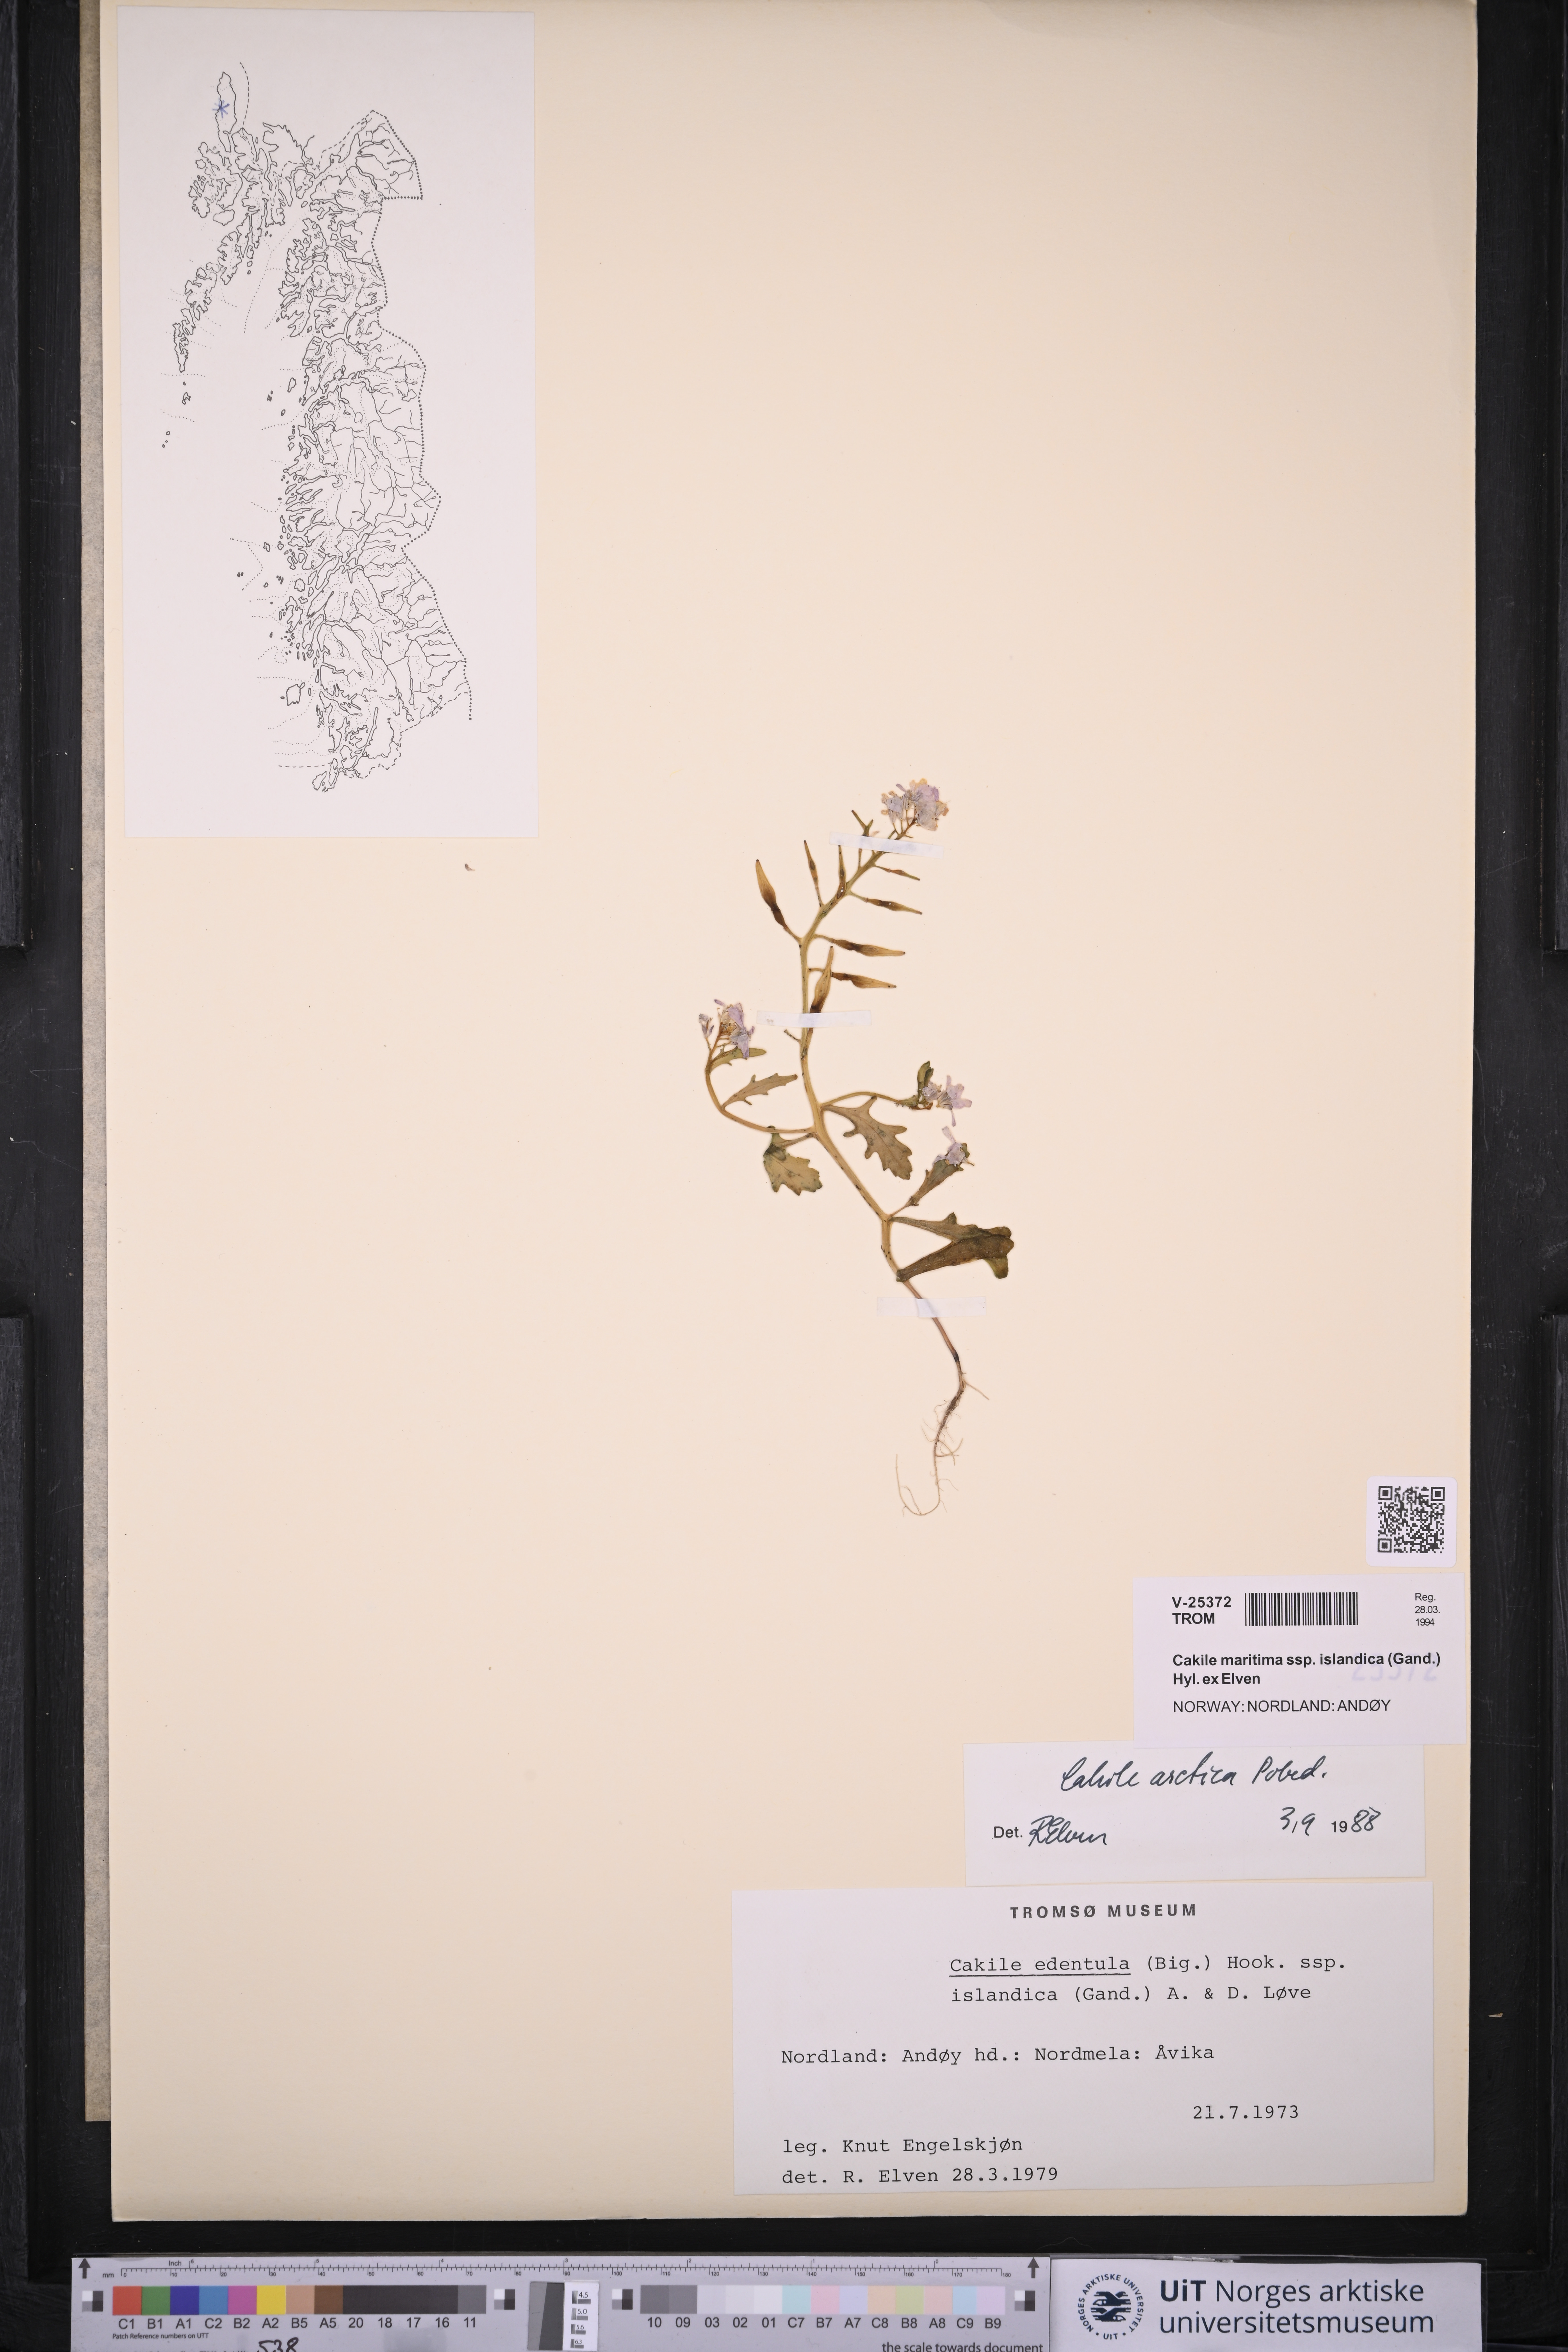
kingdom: Plantae
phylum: Tracheophyta
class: Magnoliopsida
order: Brassicales
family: Brassicaceae
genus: Cakile
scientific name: Cakile arctica
